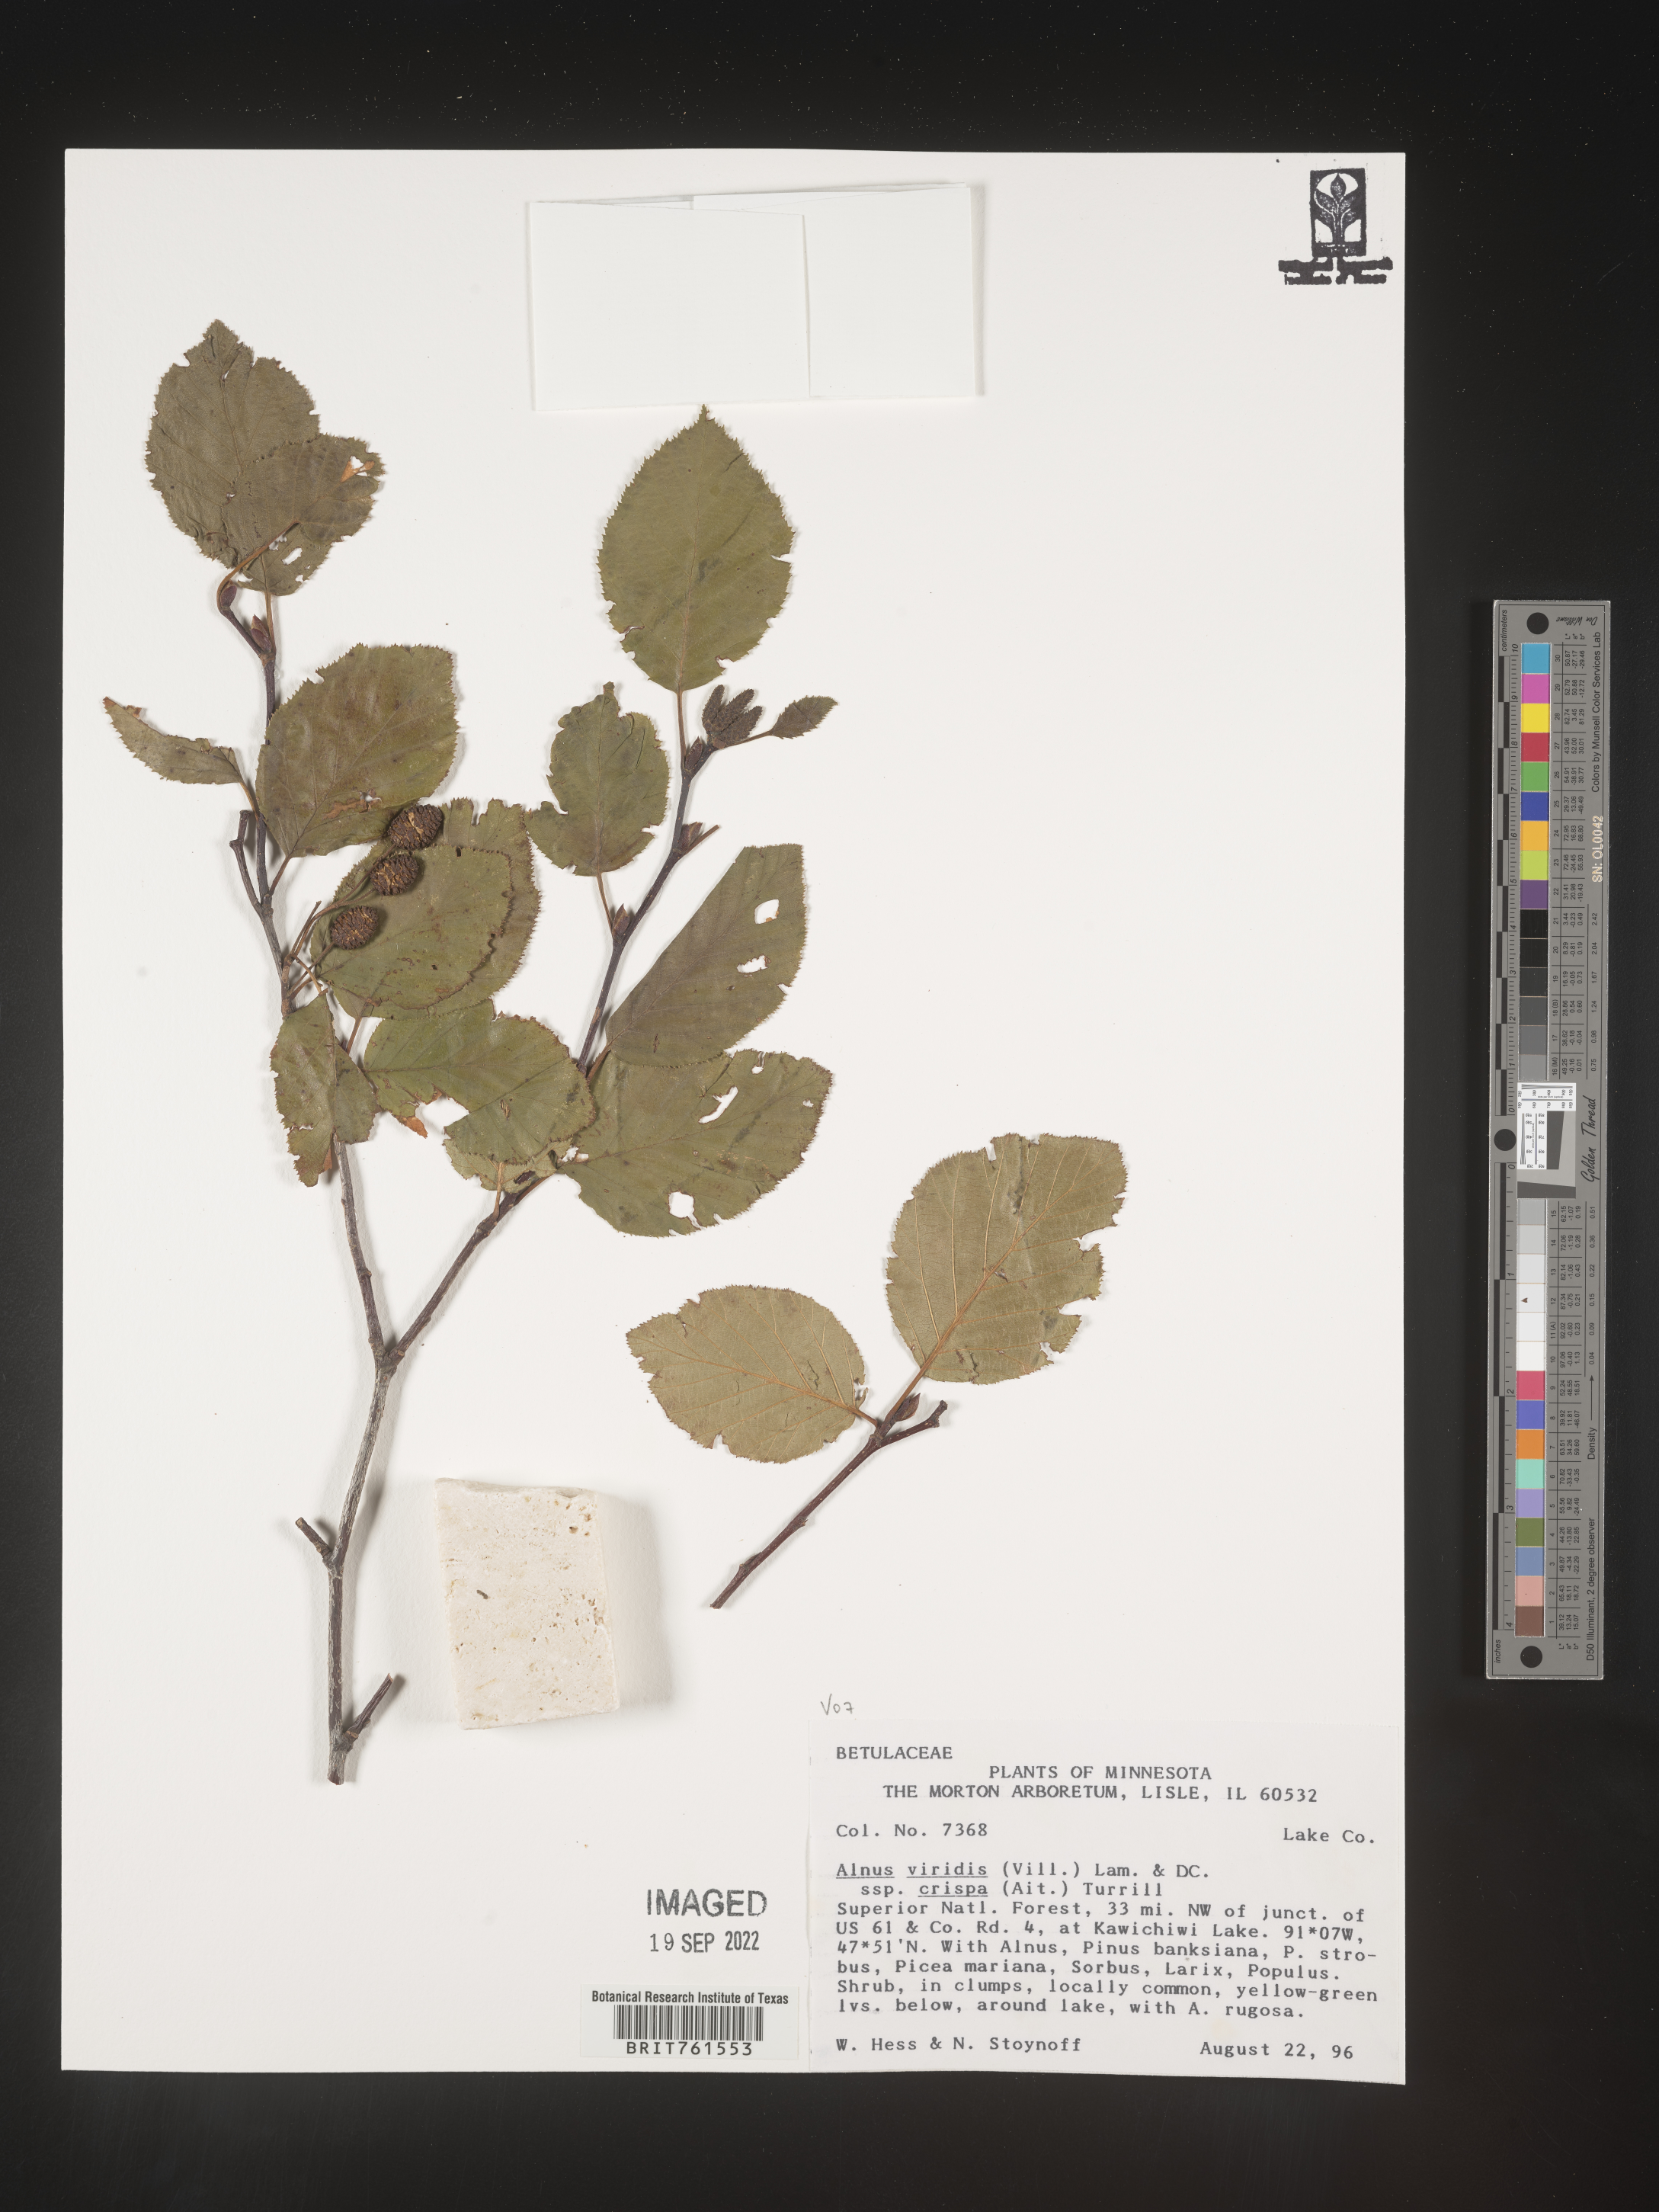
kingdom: Plantae
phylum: Tracheophyta
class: Magnoliopsida
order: Fagales
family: Betulaceae
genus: Alnus
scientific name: Alnus alnobetula
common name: Green alder
